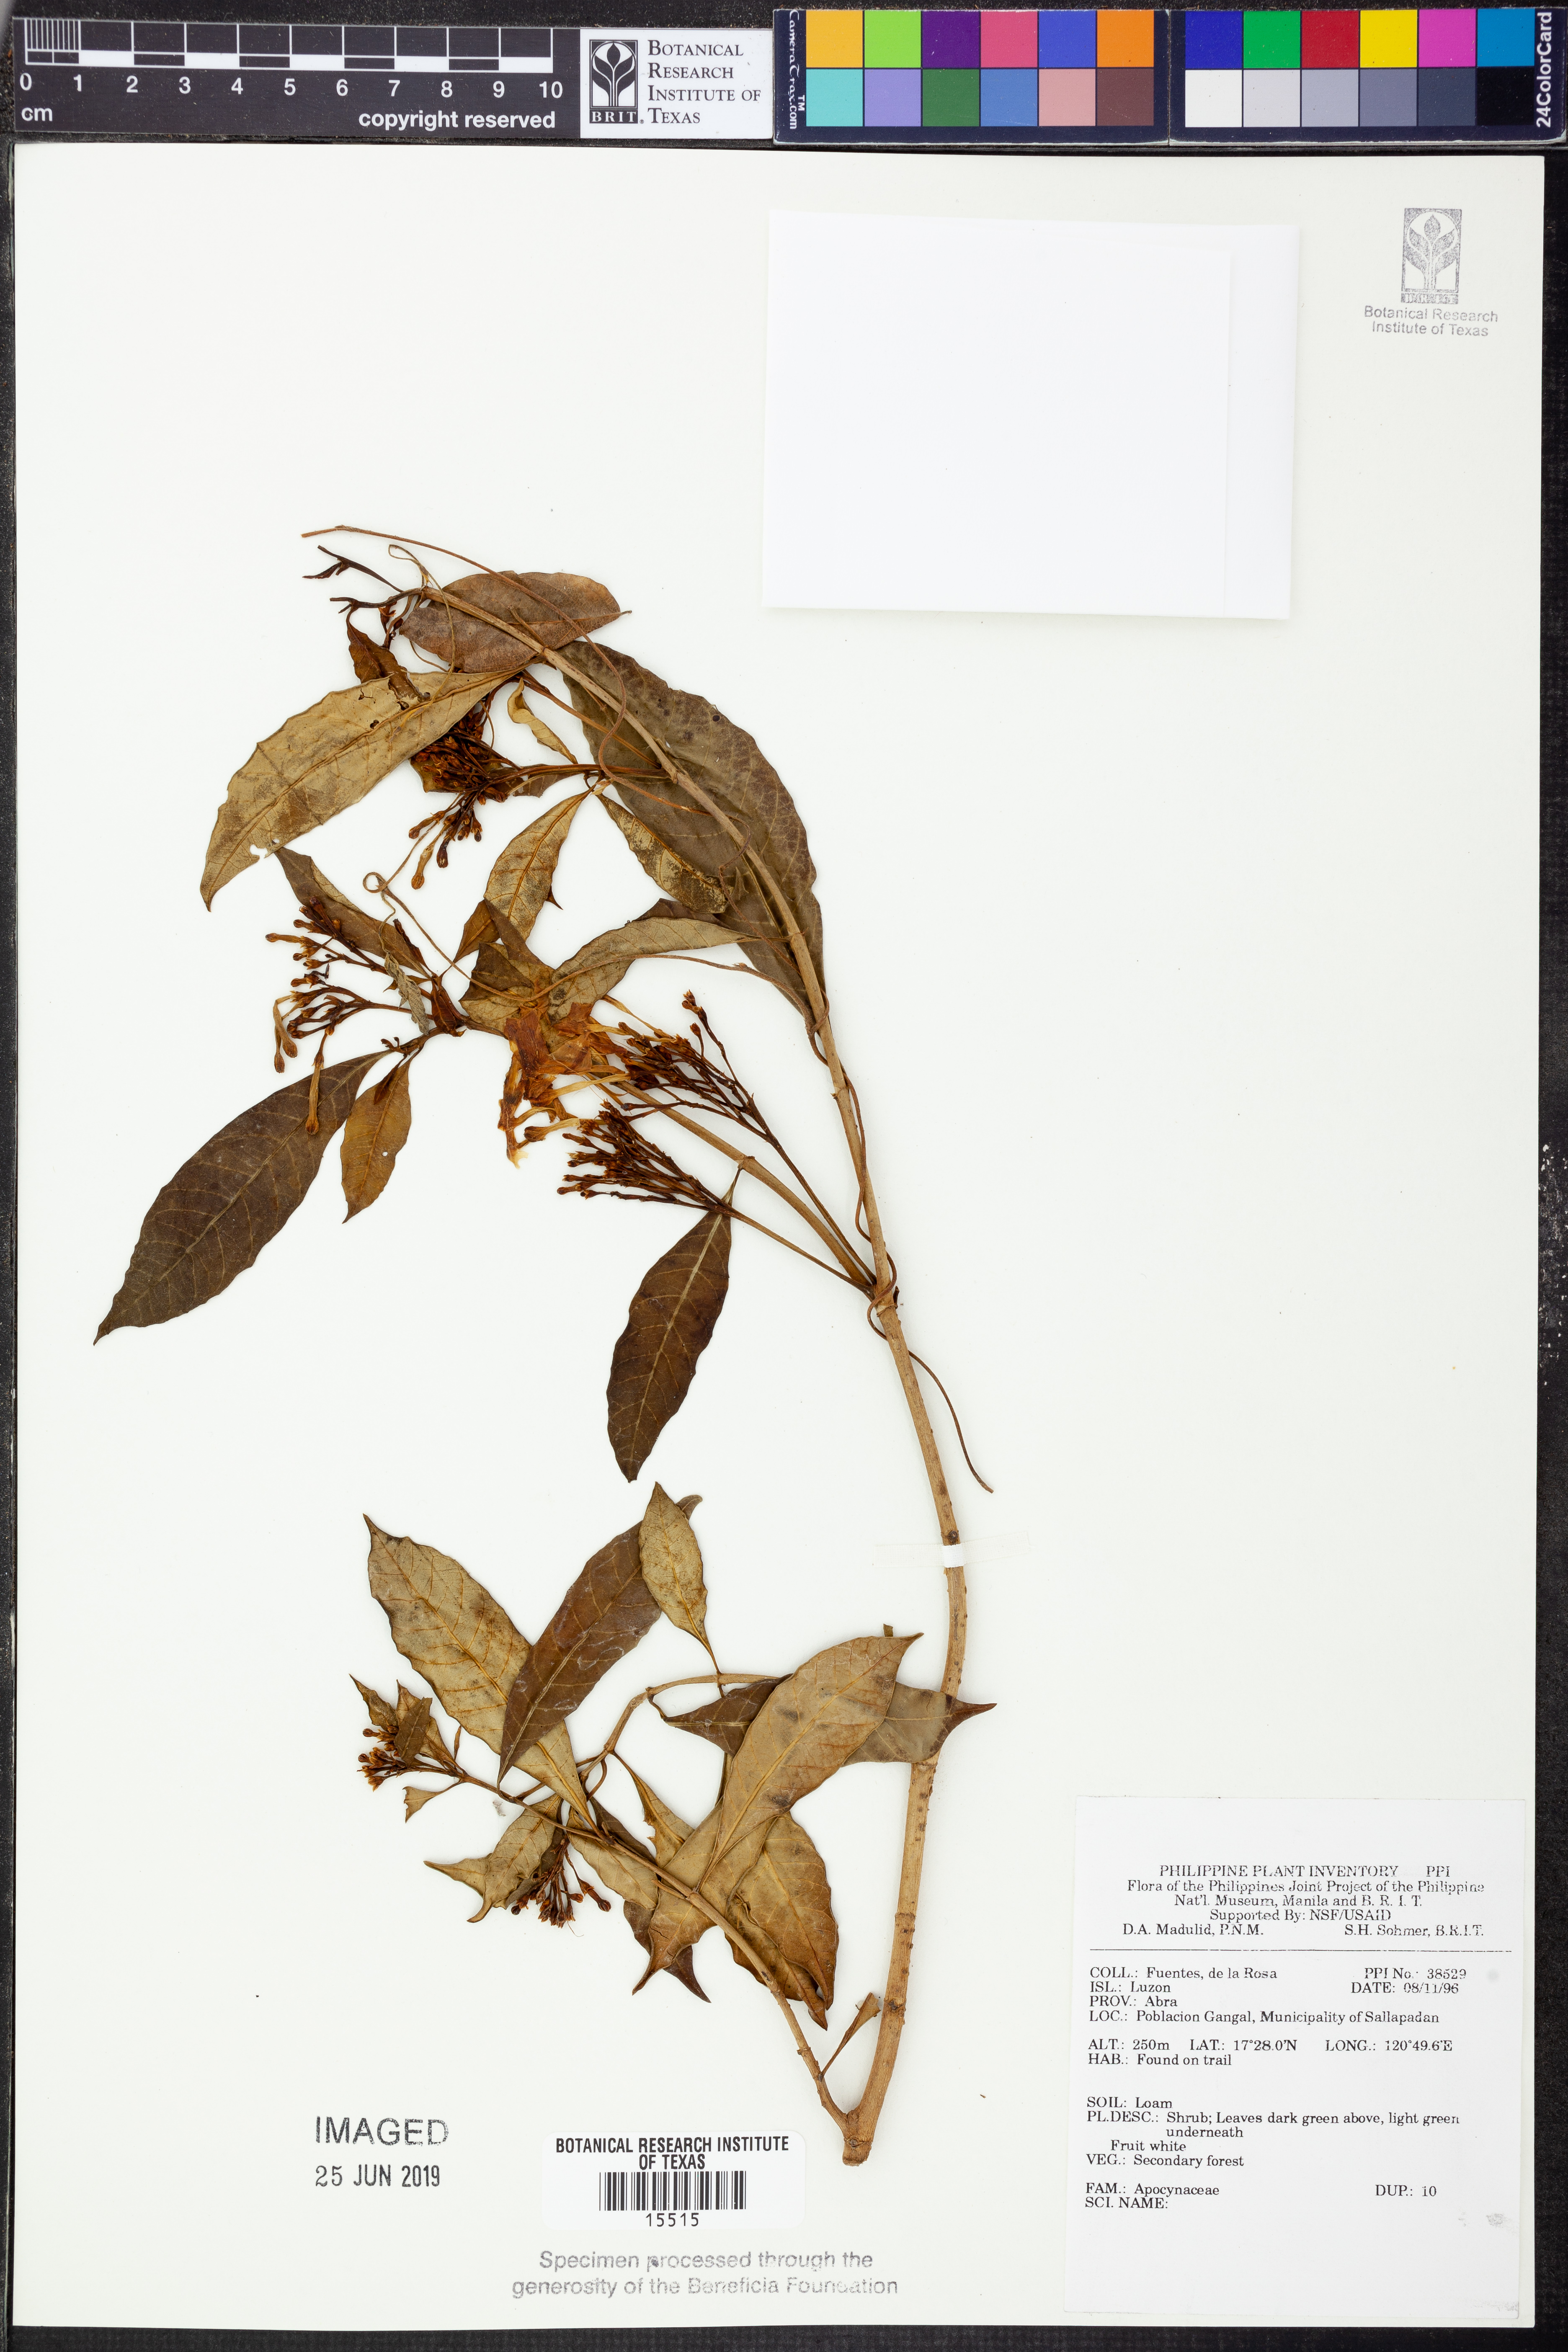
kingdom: Plantae
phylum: Tracheophyta
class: Magnoliopsida
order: Gentianales
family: Apocynaceae
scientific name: Apocynaceae
